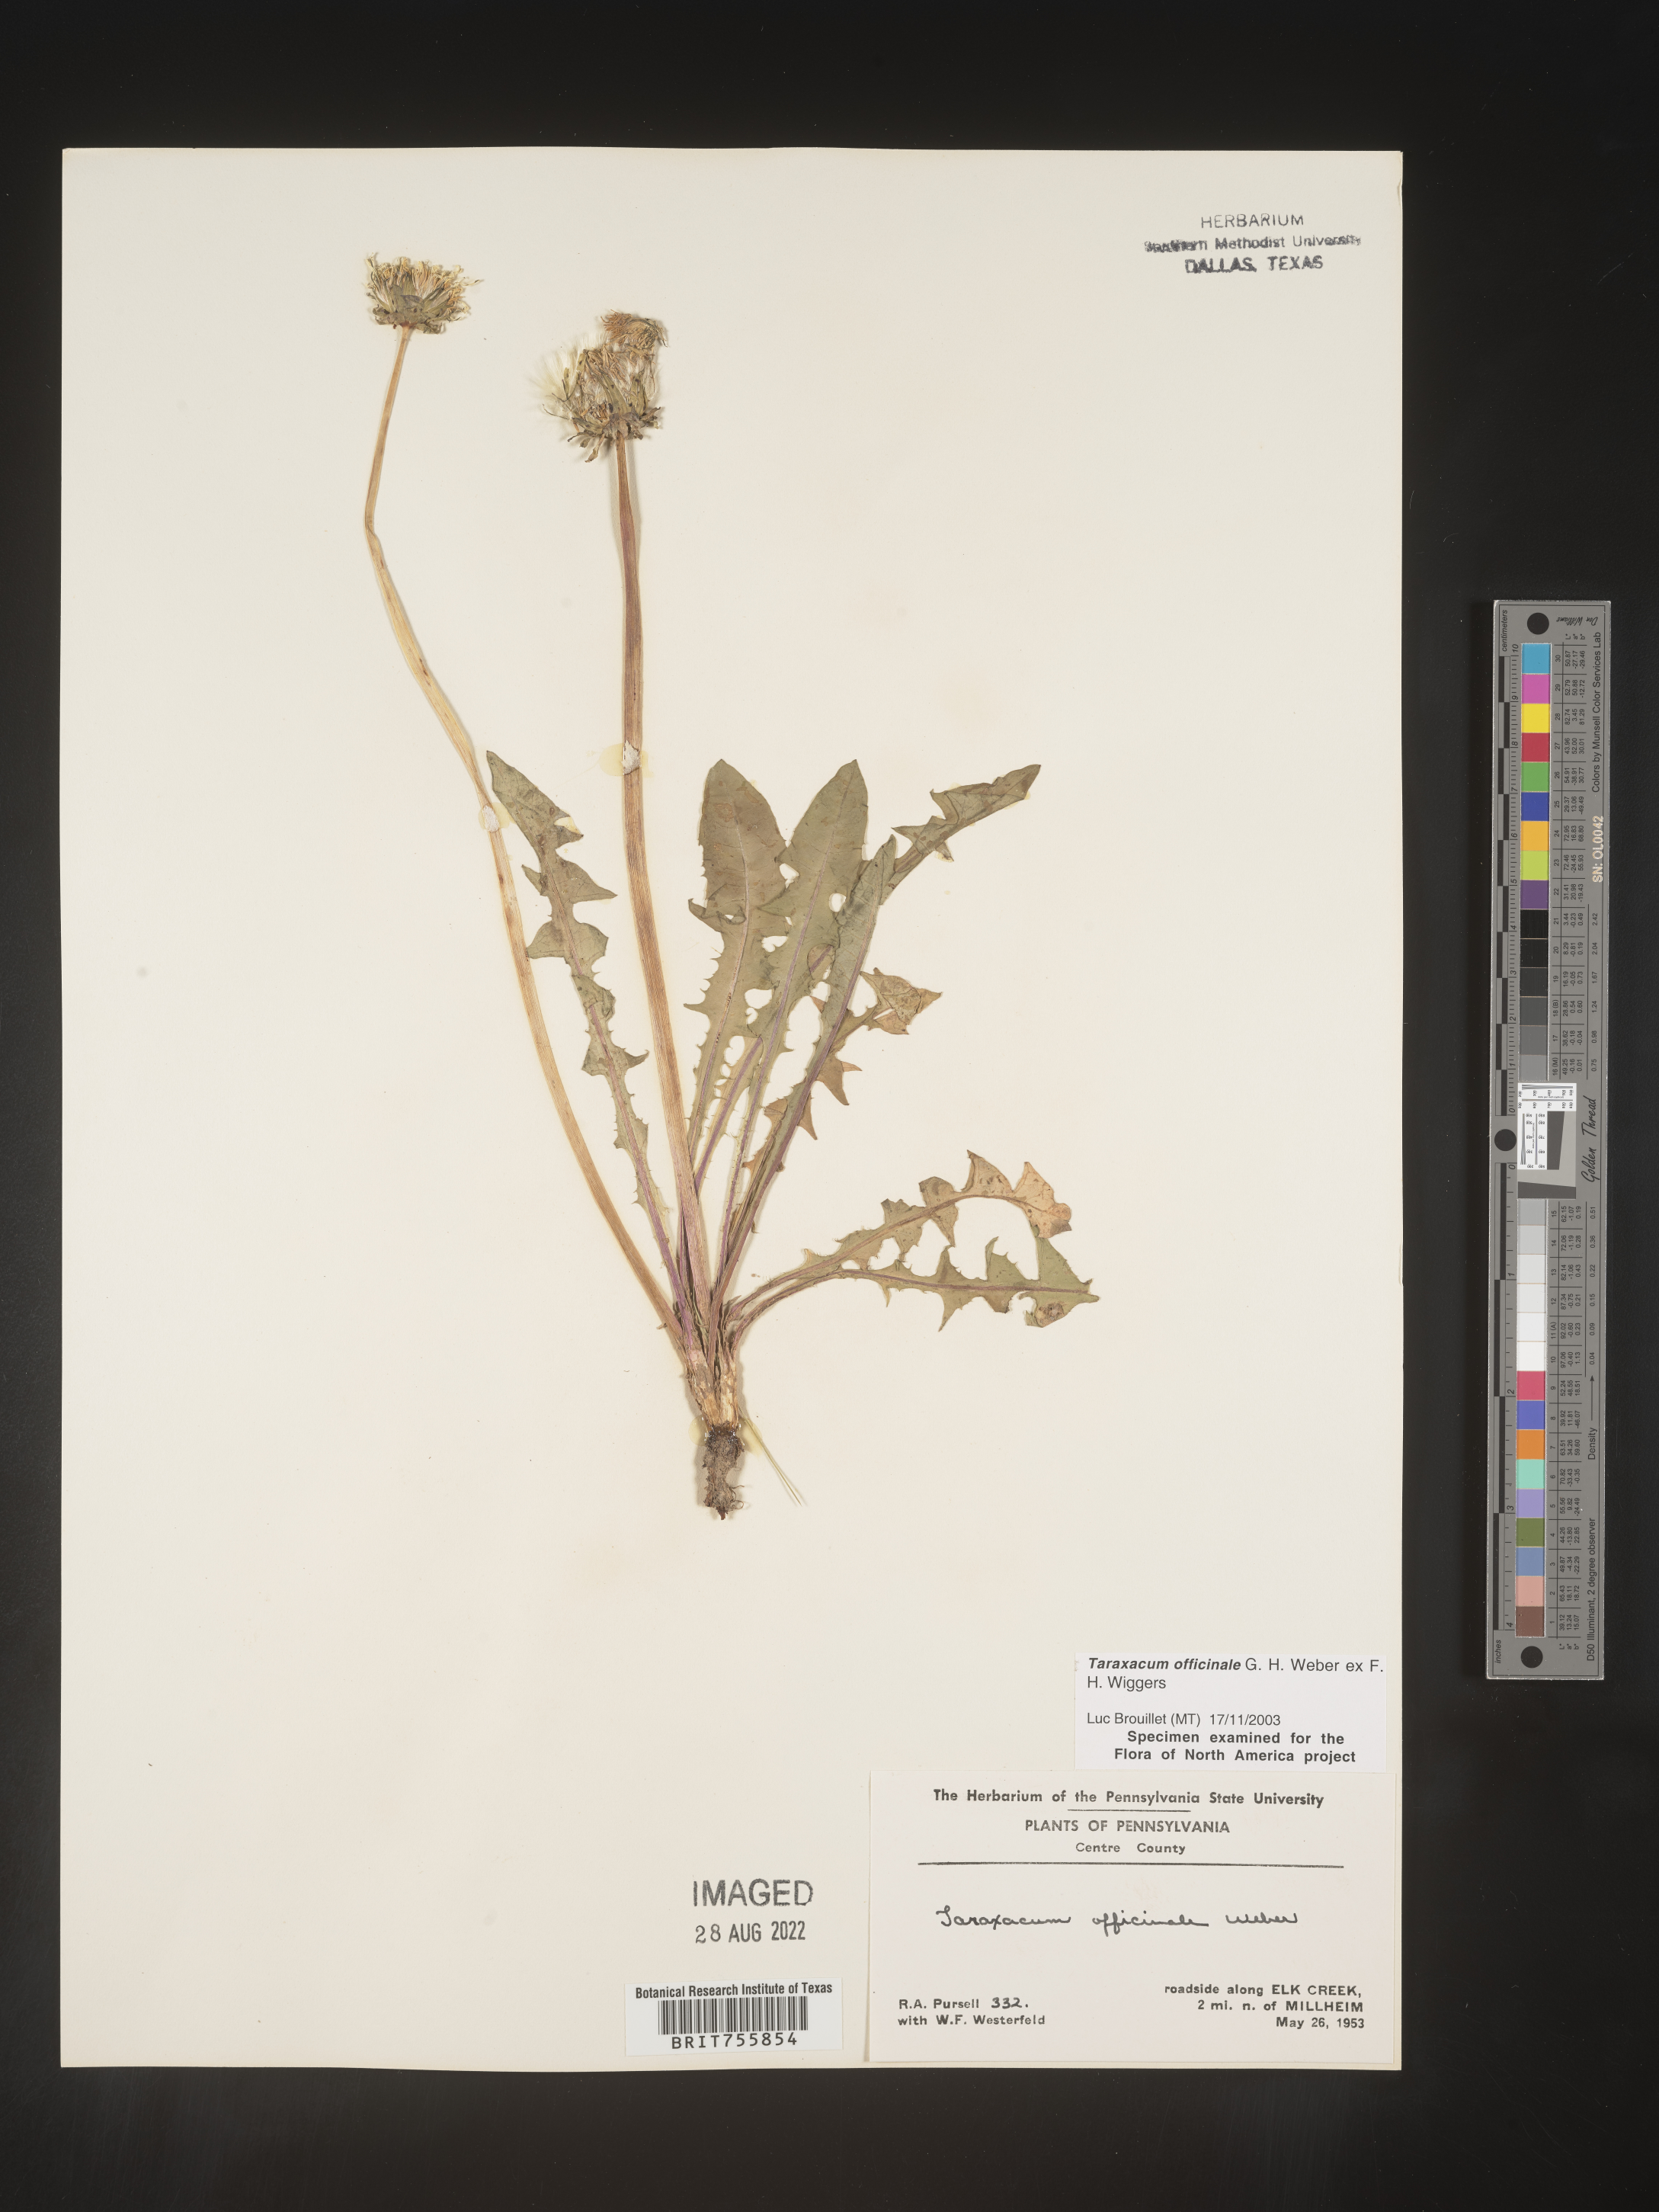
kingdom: Plantae
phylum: Tracheophyta
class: Magnoliopsida
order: Asterales
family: Asteraceae
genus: Taraxacum
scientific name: Taraxacum officinale
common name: Common dandelion
